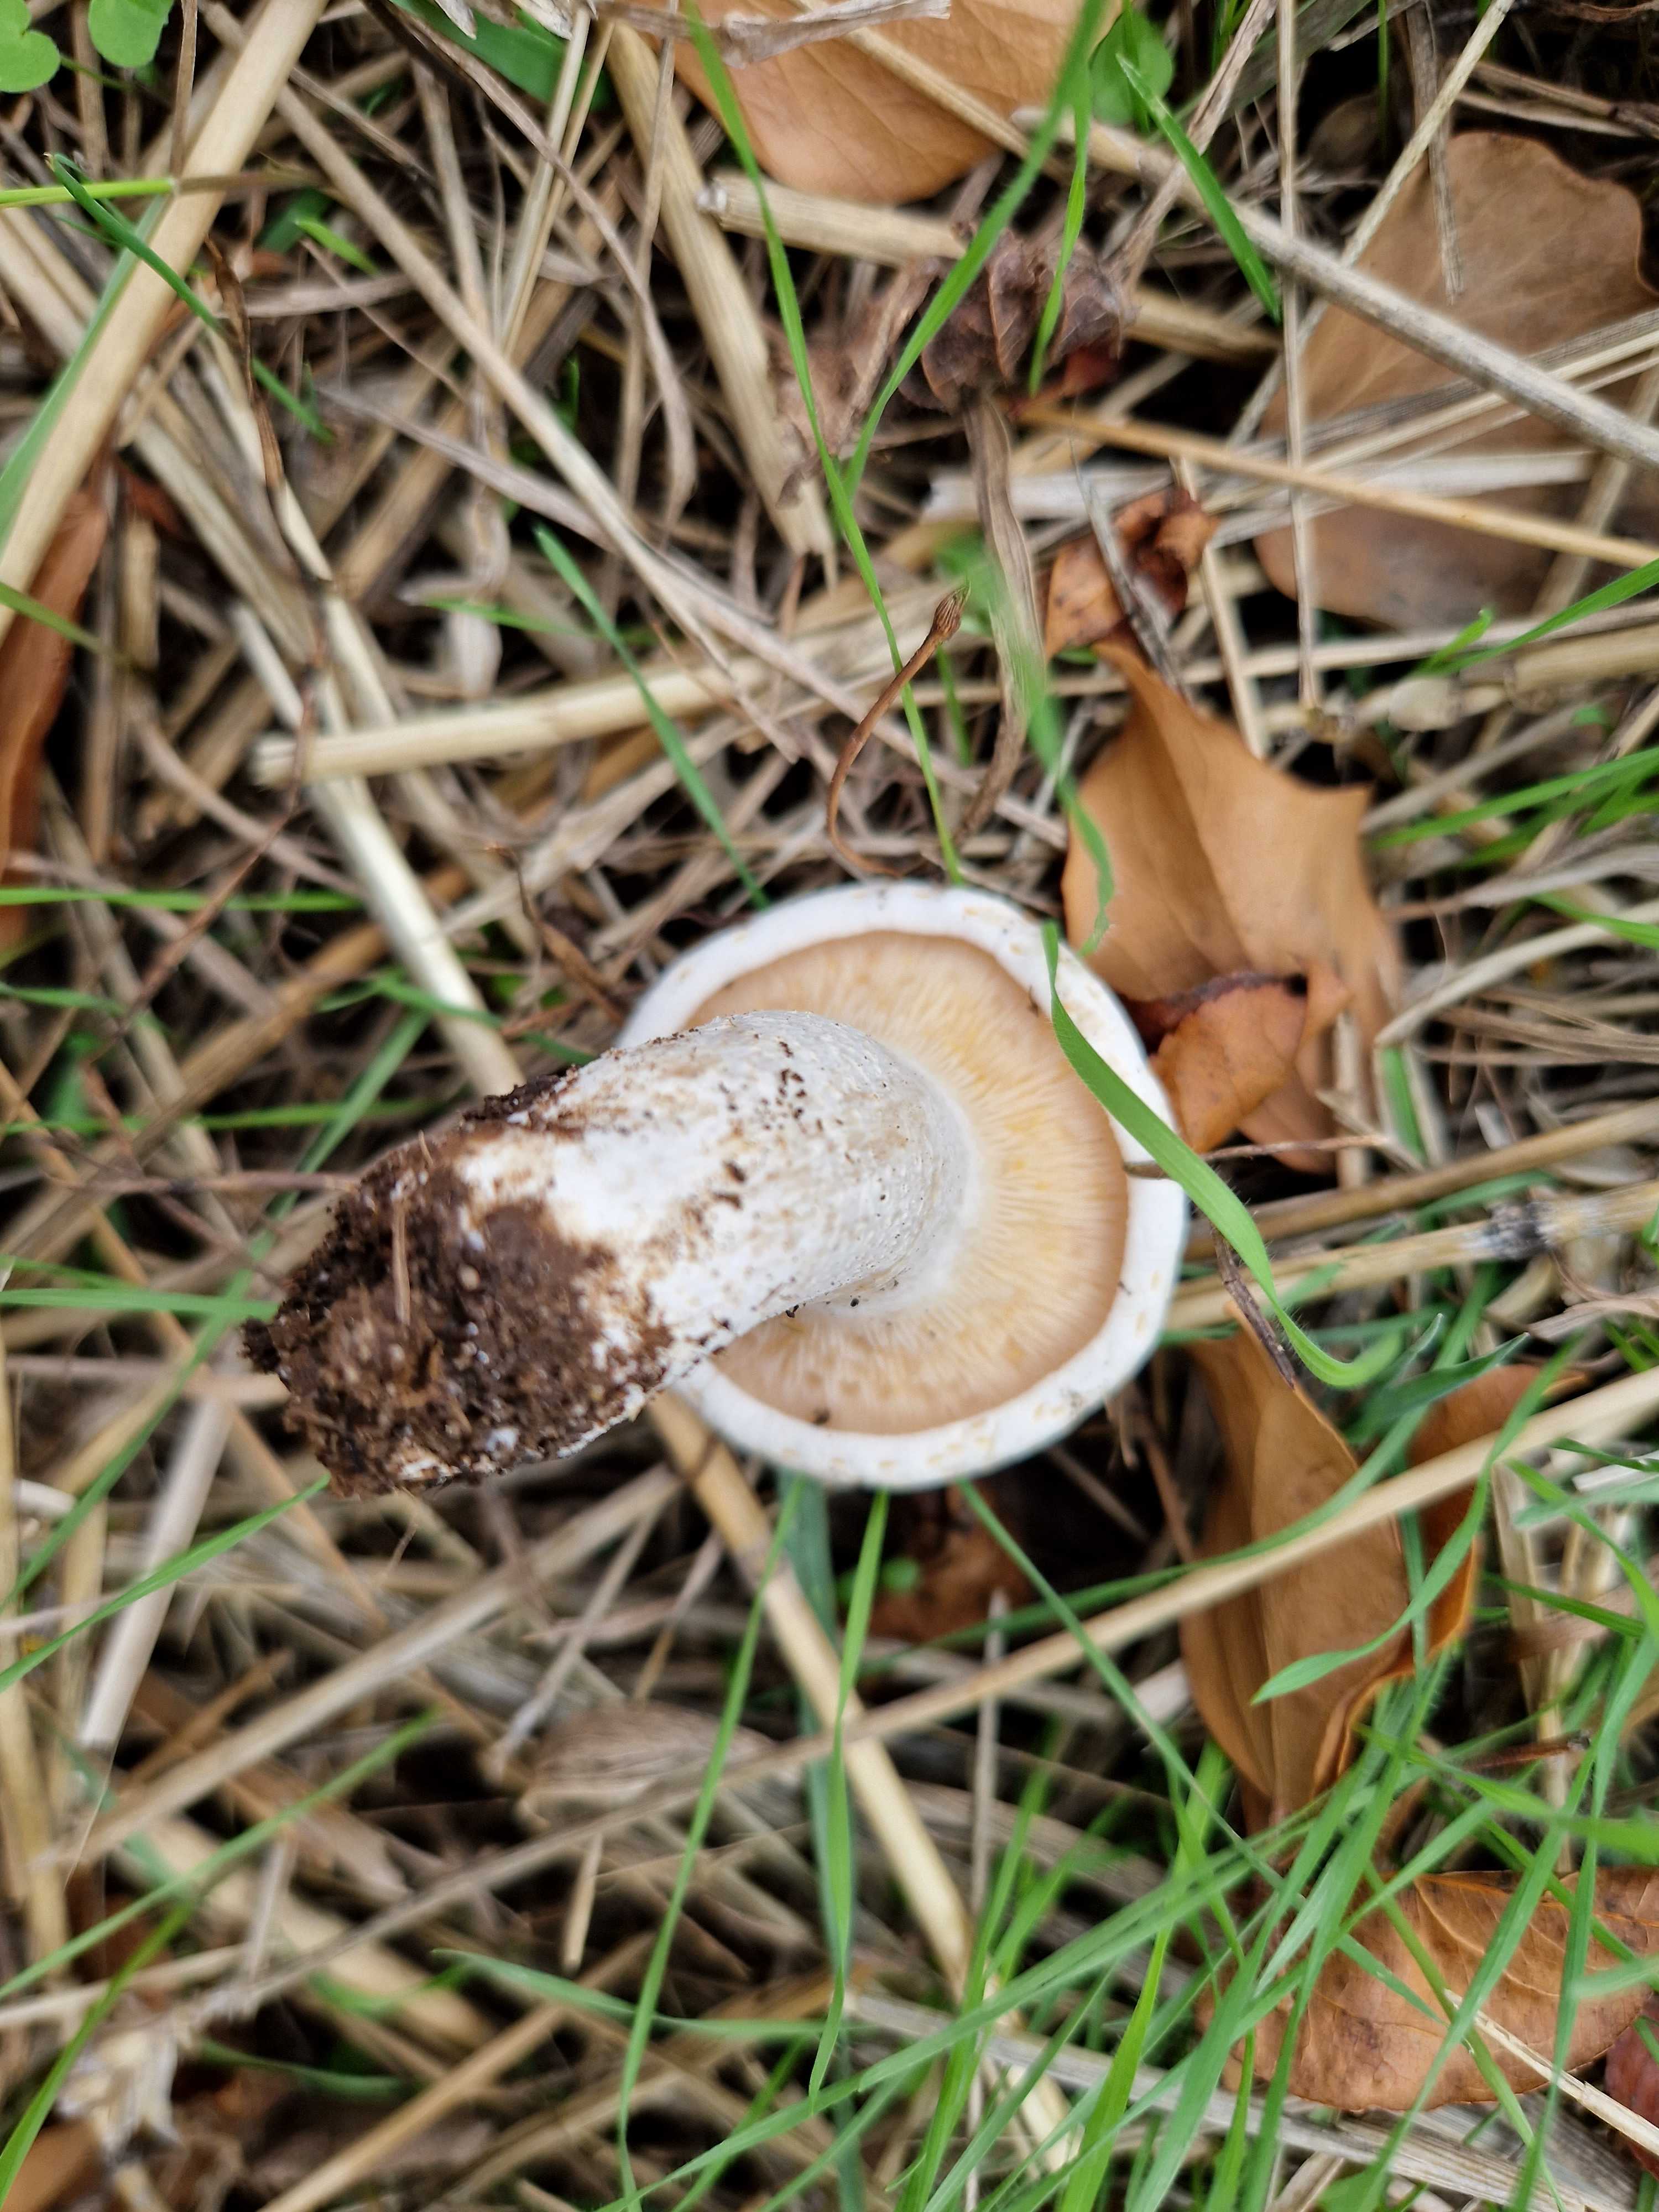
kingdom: Fungi
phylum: Basidiomycota
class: Agaricomycetes
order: Agaricales
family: Tricholomataceae
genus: Aspropaxillus
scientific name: Aspropaxillus giganteus
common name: kæmpe-tragtridderhat
